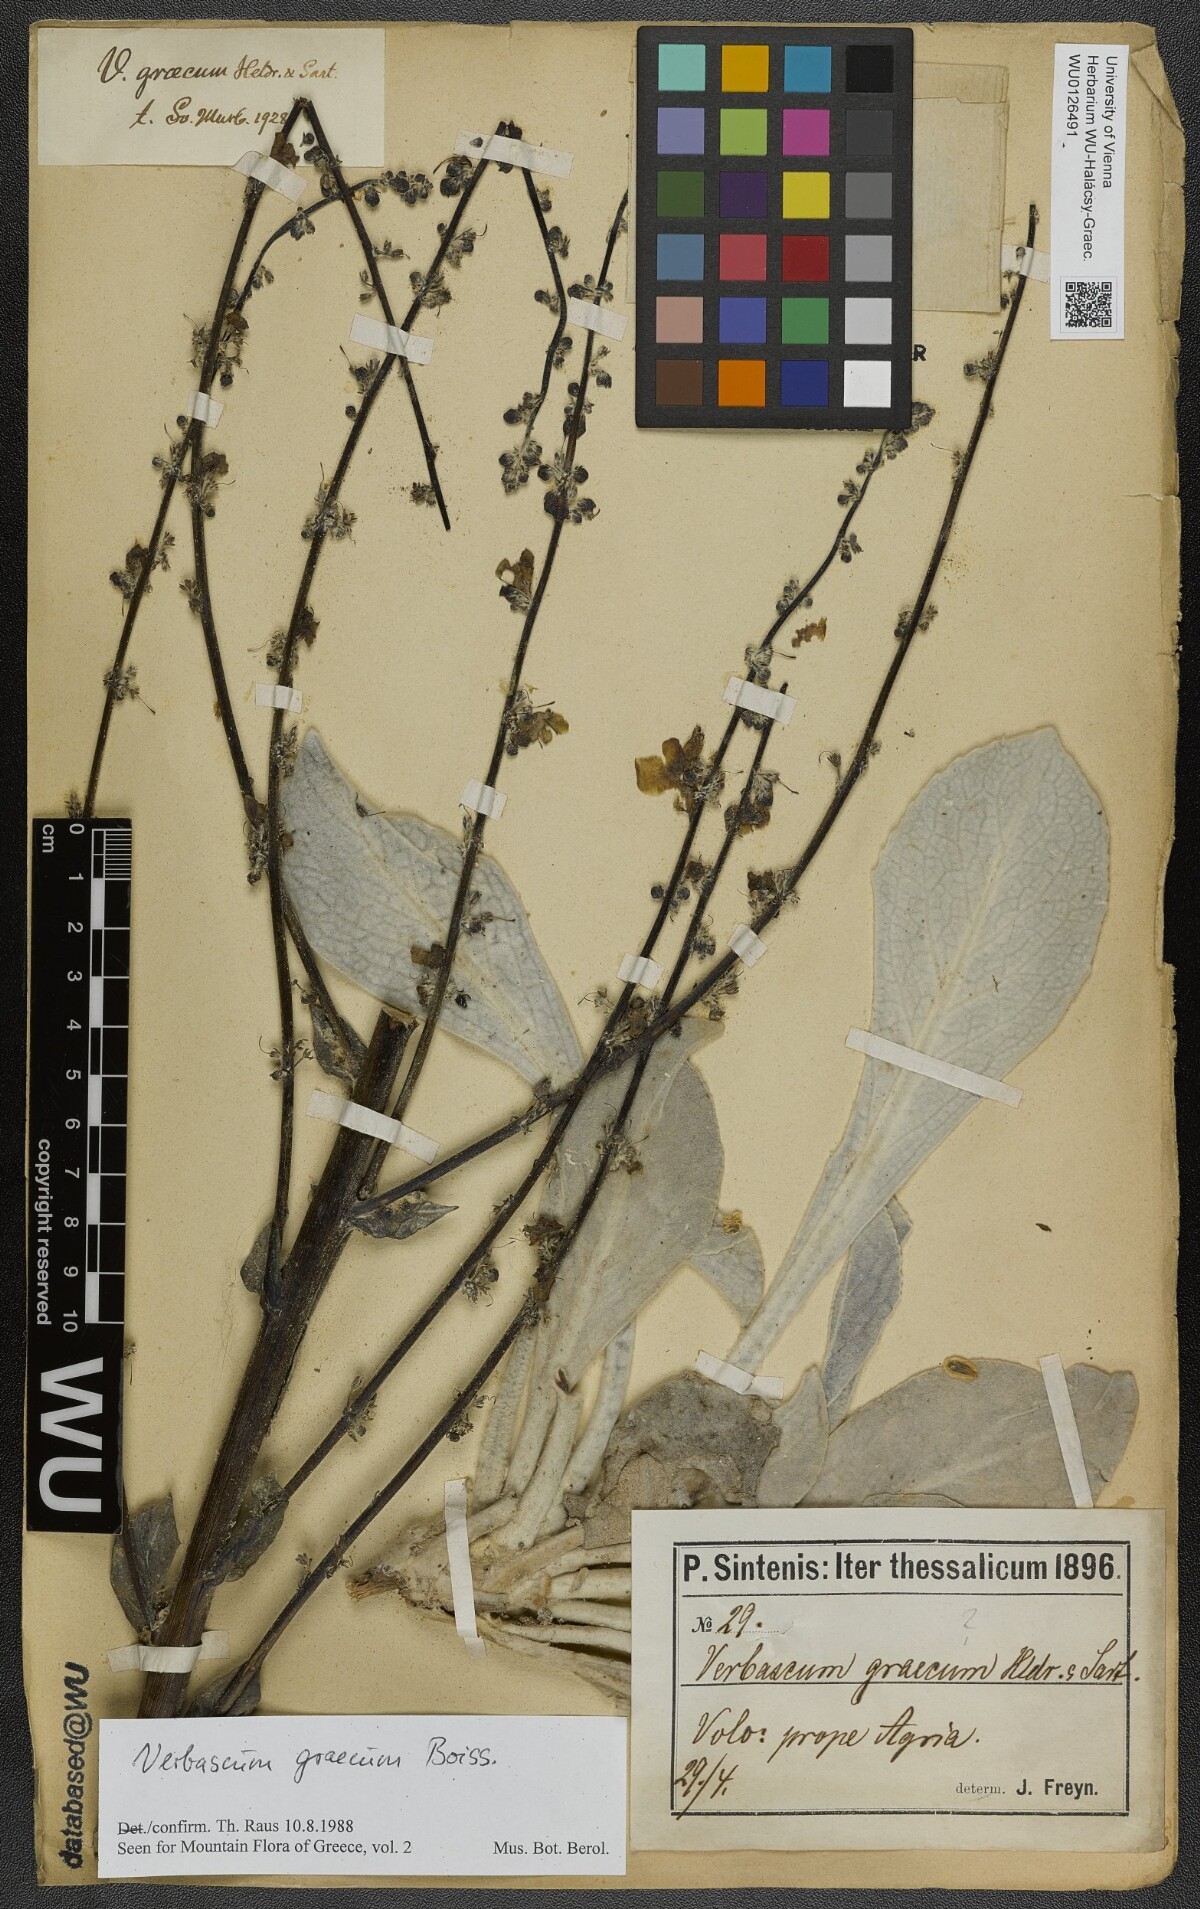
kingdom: Plantae
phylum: Tracheophyta
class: Magnoliopsida
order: Lamiales
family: Scrophulariaceae
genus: Verbascum
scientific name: Verbascum graecum
